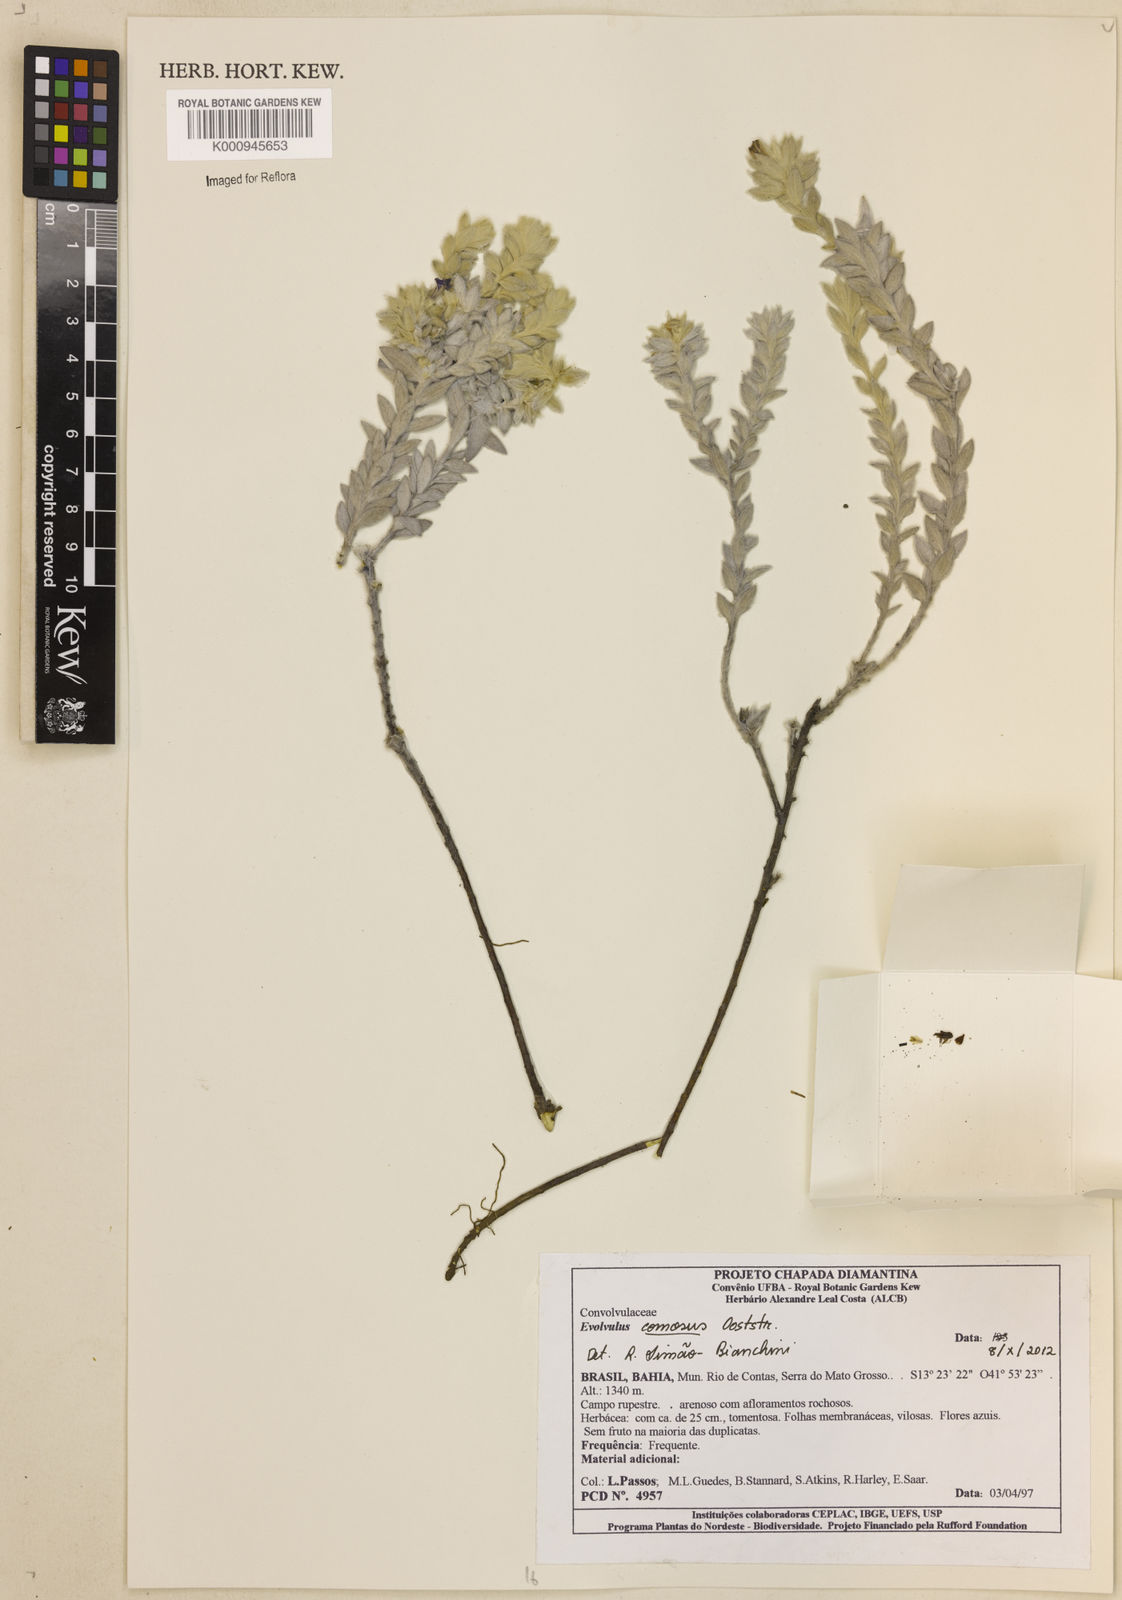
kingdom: Plantae
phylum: Tracheophyta
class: Magnoliopsida
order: Solanales
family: Convolvulaceae
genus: Evolvulus
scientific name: Evolvulus comosus
